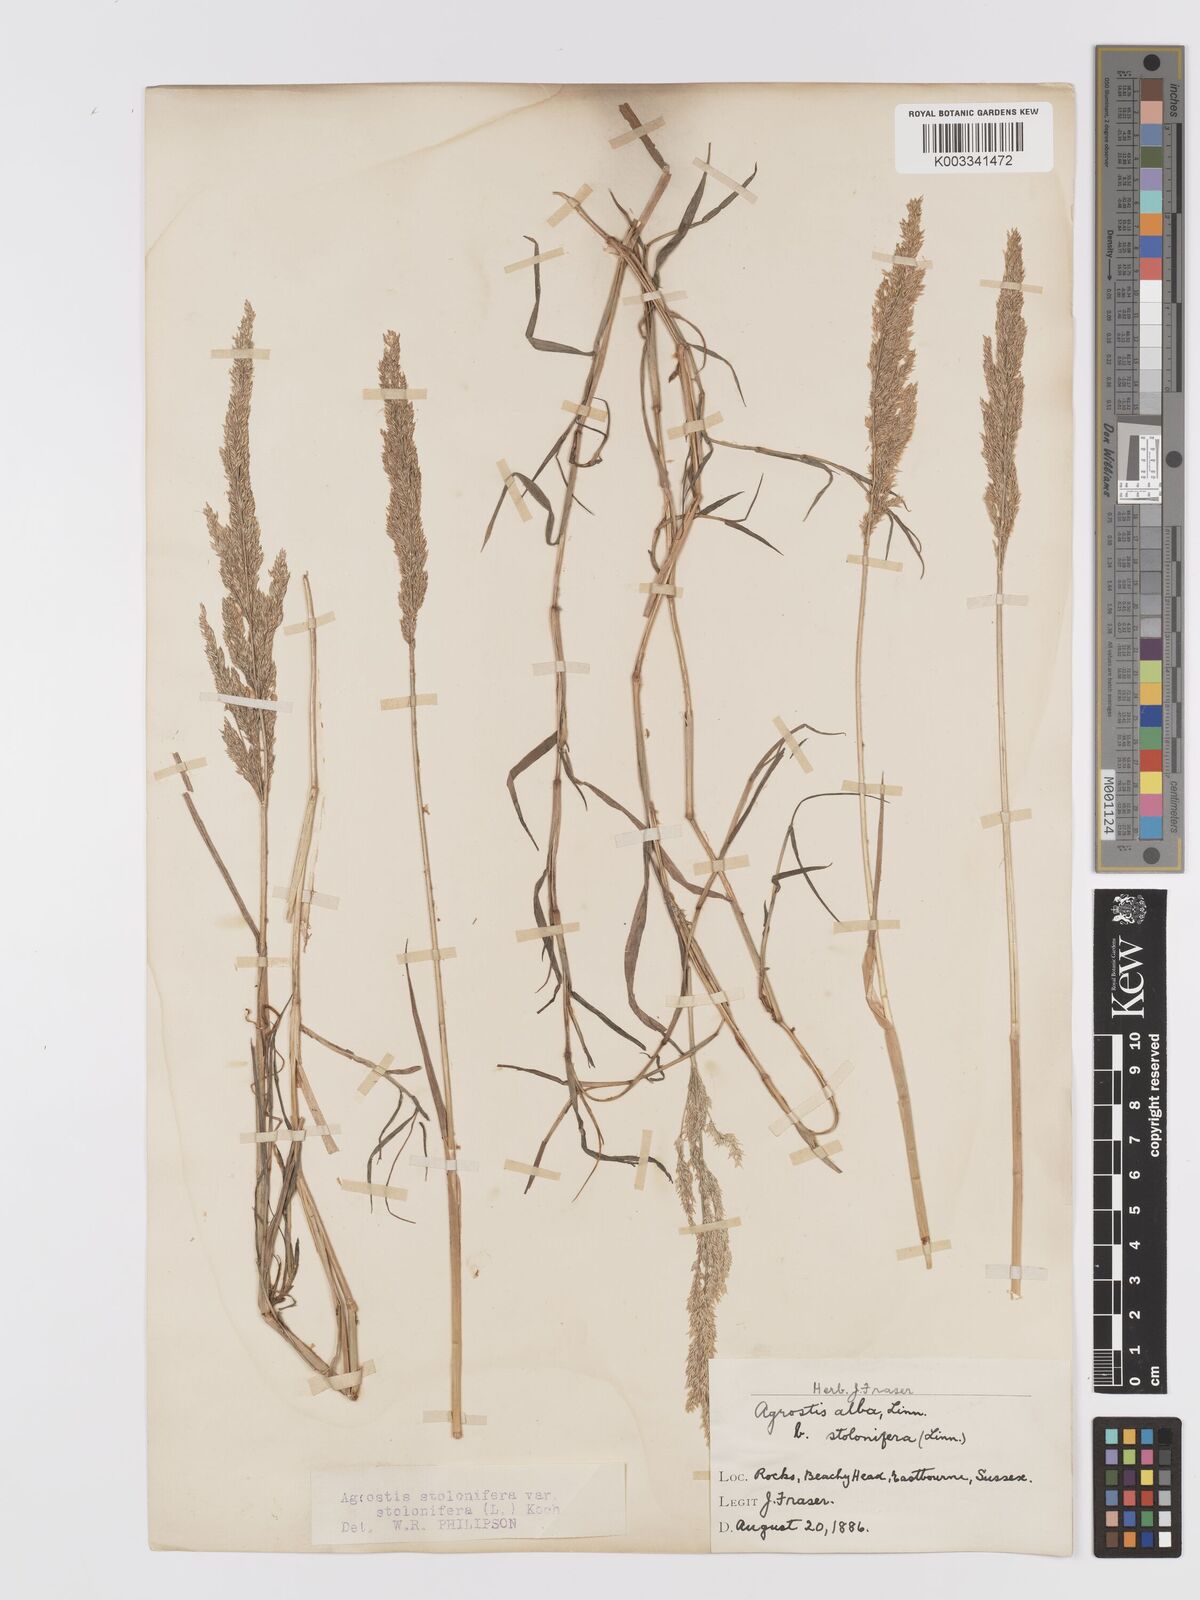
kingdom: Plantae
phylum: Tracheophyta
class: Liliopsida
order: Poales
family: Poaceae
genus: Agrostis
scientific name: Agrostis stolonifera
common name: Creeping bentgrass
